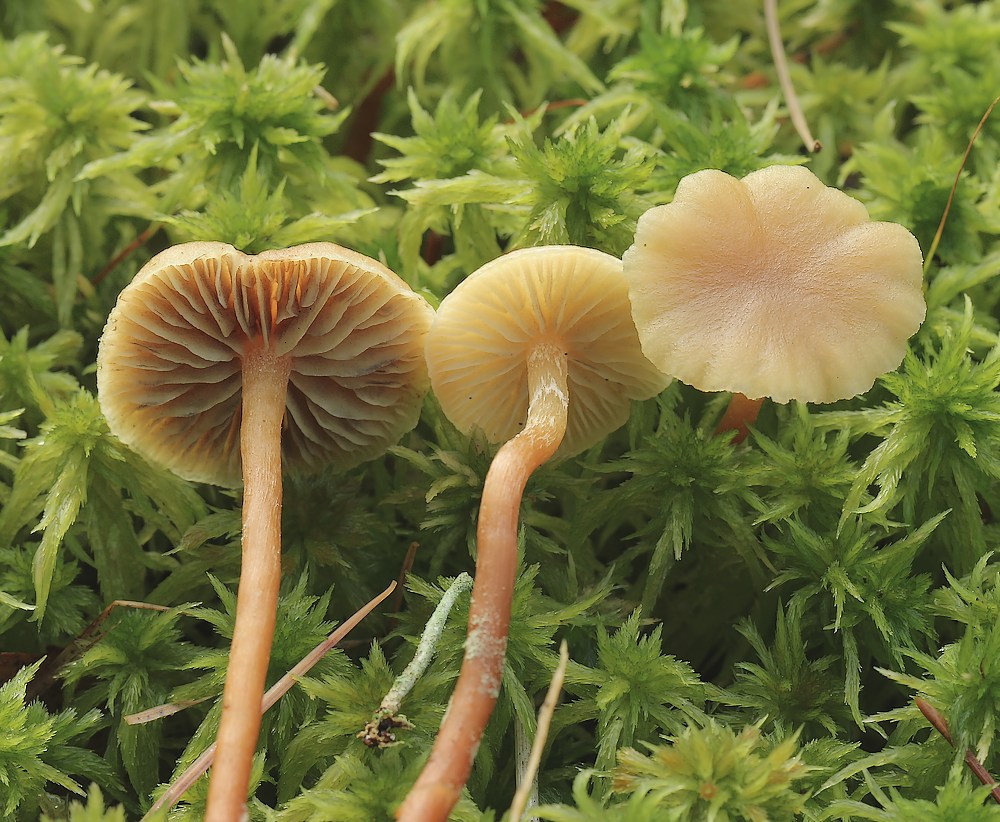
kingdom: Fungi
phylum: Basidiomycota
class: Agaricomycetes
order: Agaricales
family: Strophariaceae
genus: Hypholoma
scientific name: Hypholoma elongatum
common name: slank svovlhat
